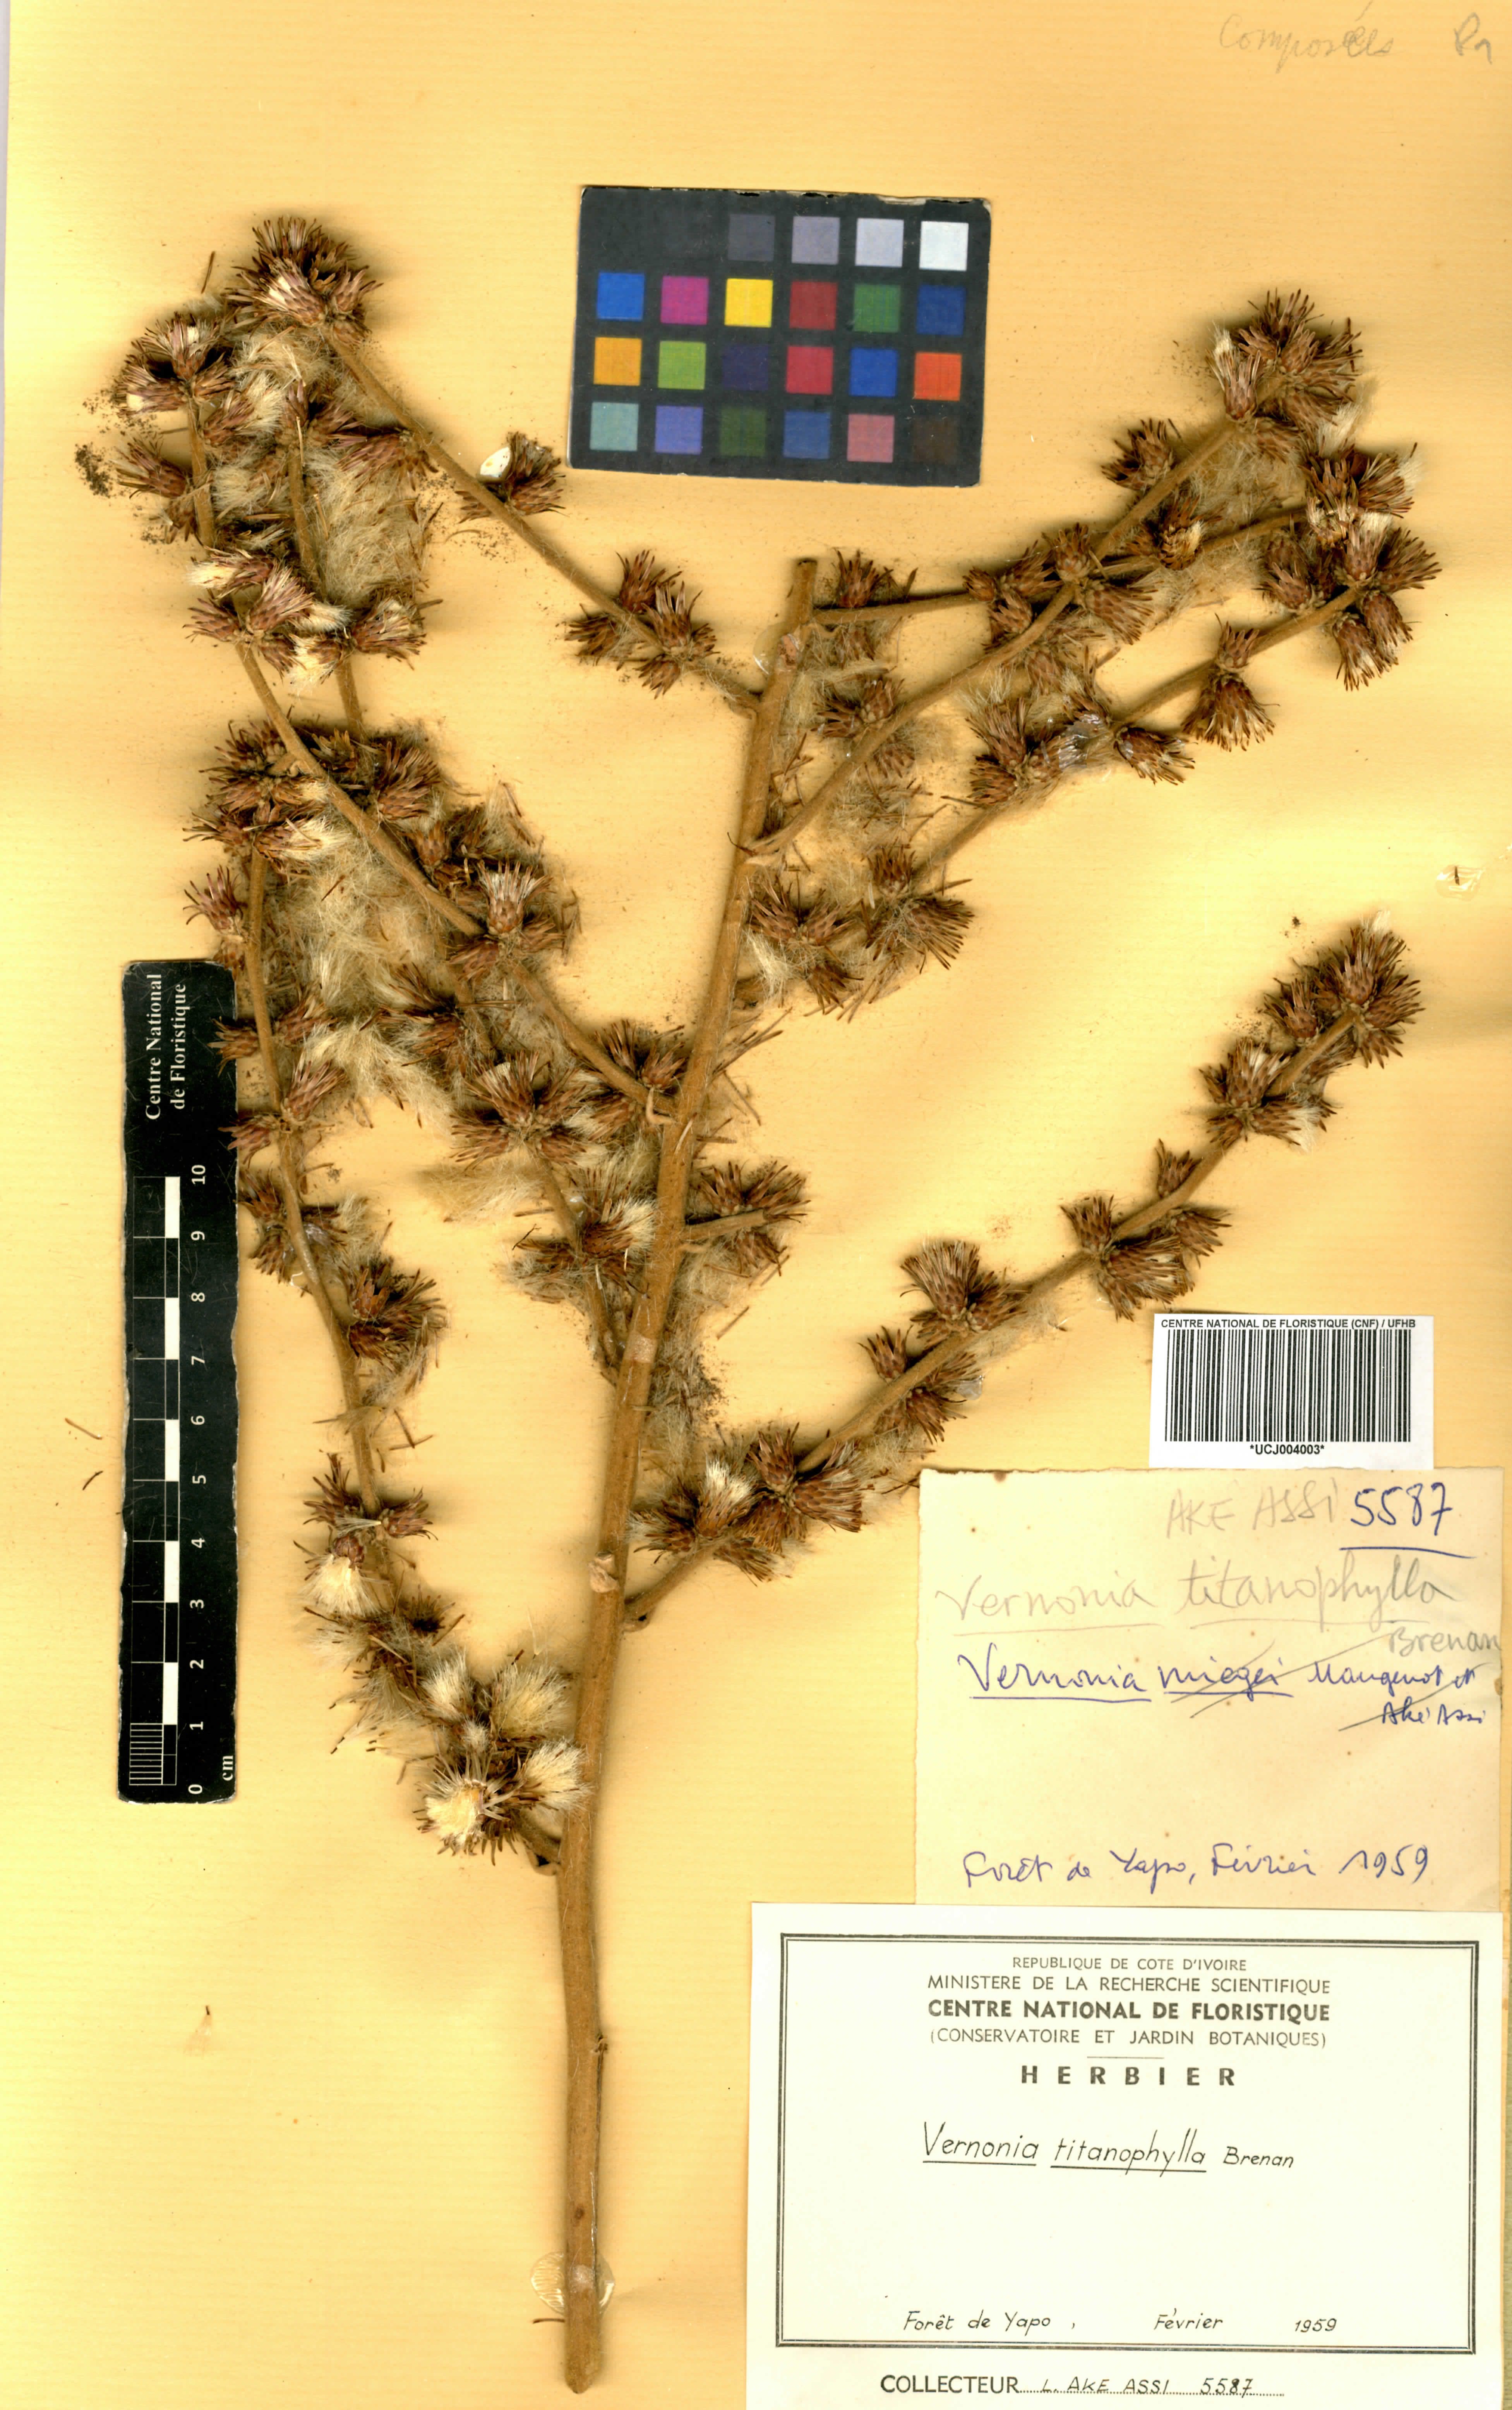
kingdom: Plantae
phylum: Tracheophyta
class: Magnoliopsida
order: Asterales
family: Asteraceae
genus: Brenandendron
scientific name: Brenandendron titanophyllum
